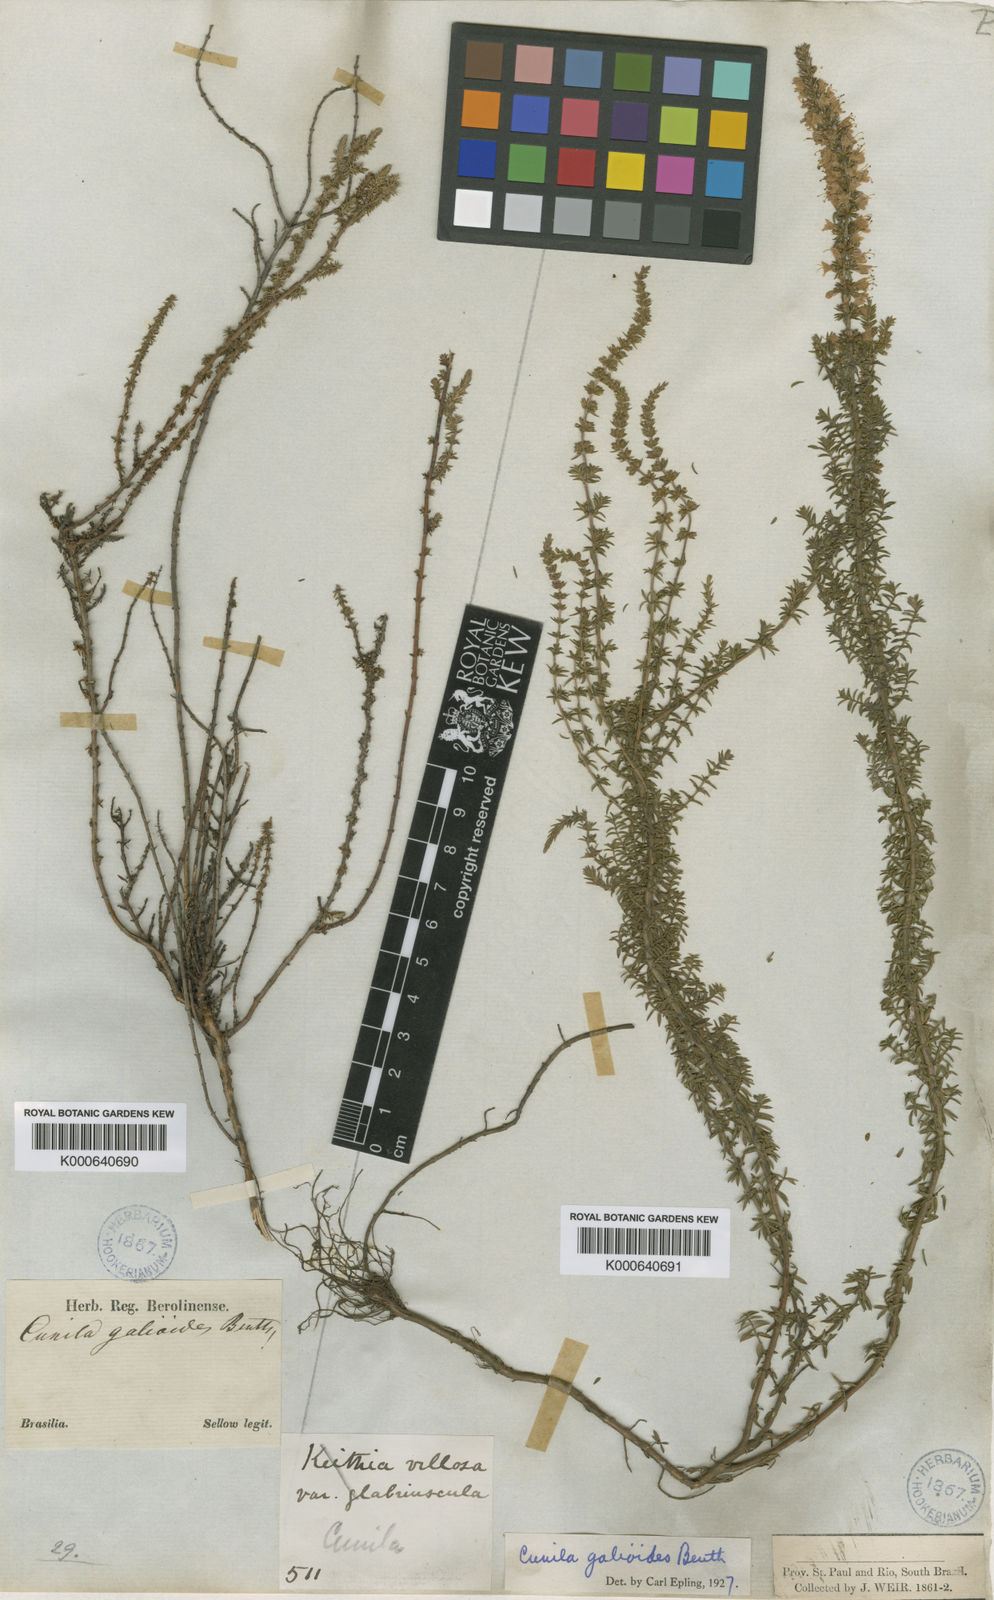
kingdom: Plantae
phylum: Tracheophyta
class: Magnoliopsida
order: Lamiales
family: Lamiaceae
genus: Cunila
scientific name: Cunila galioides
